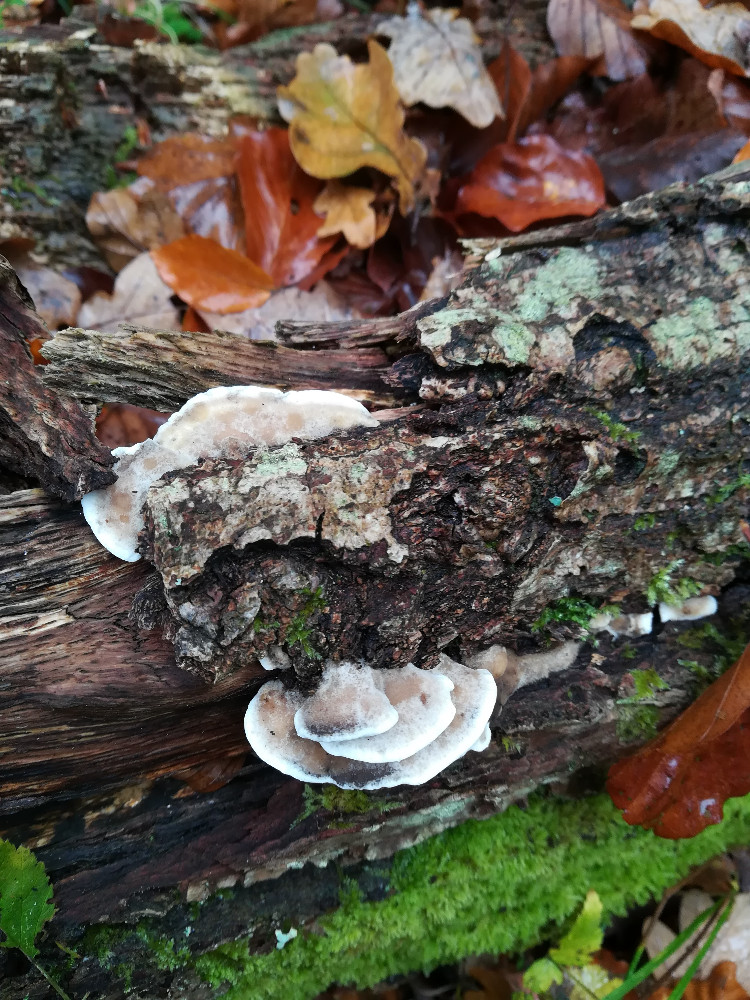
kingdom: Fungi
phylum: Basidiomycota
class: Agaricomycetes
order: Polyporales
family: Phanerochaetaceae
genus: Bjerkandera
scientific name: Bjerkandera adusta
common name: sveden sodporesvamp
